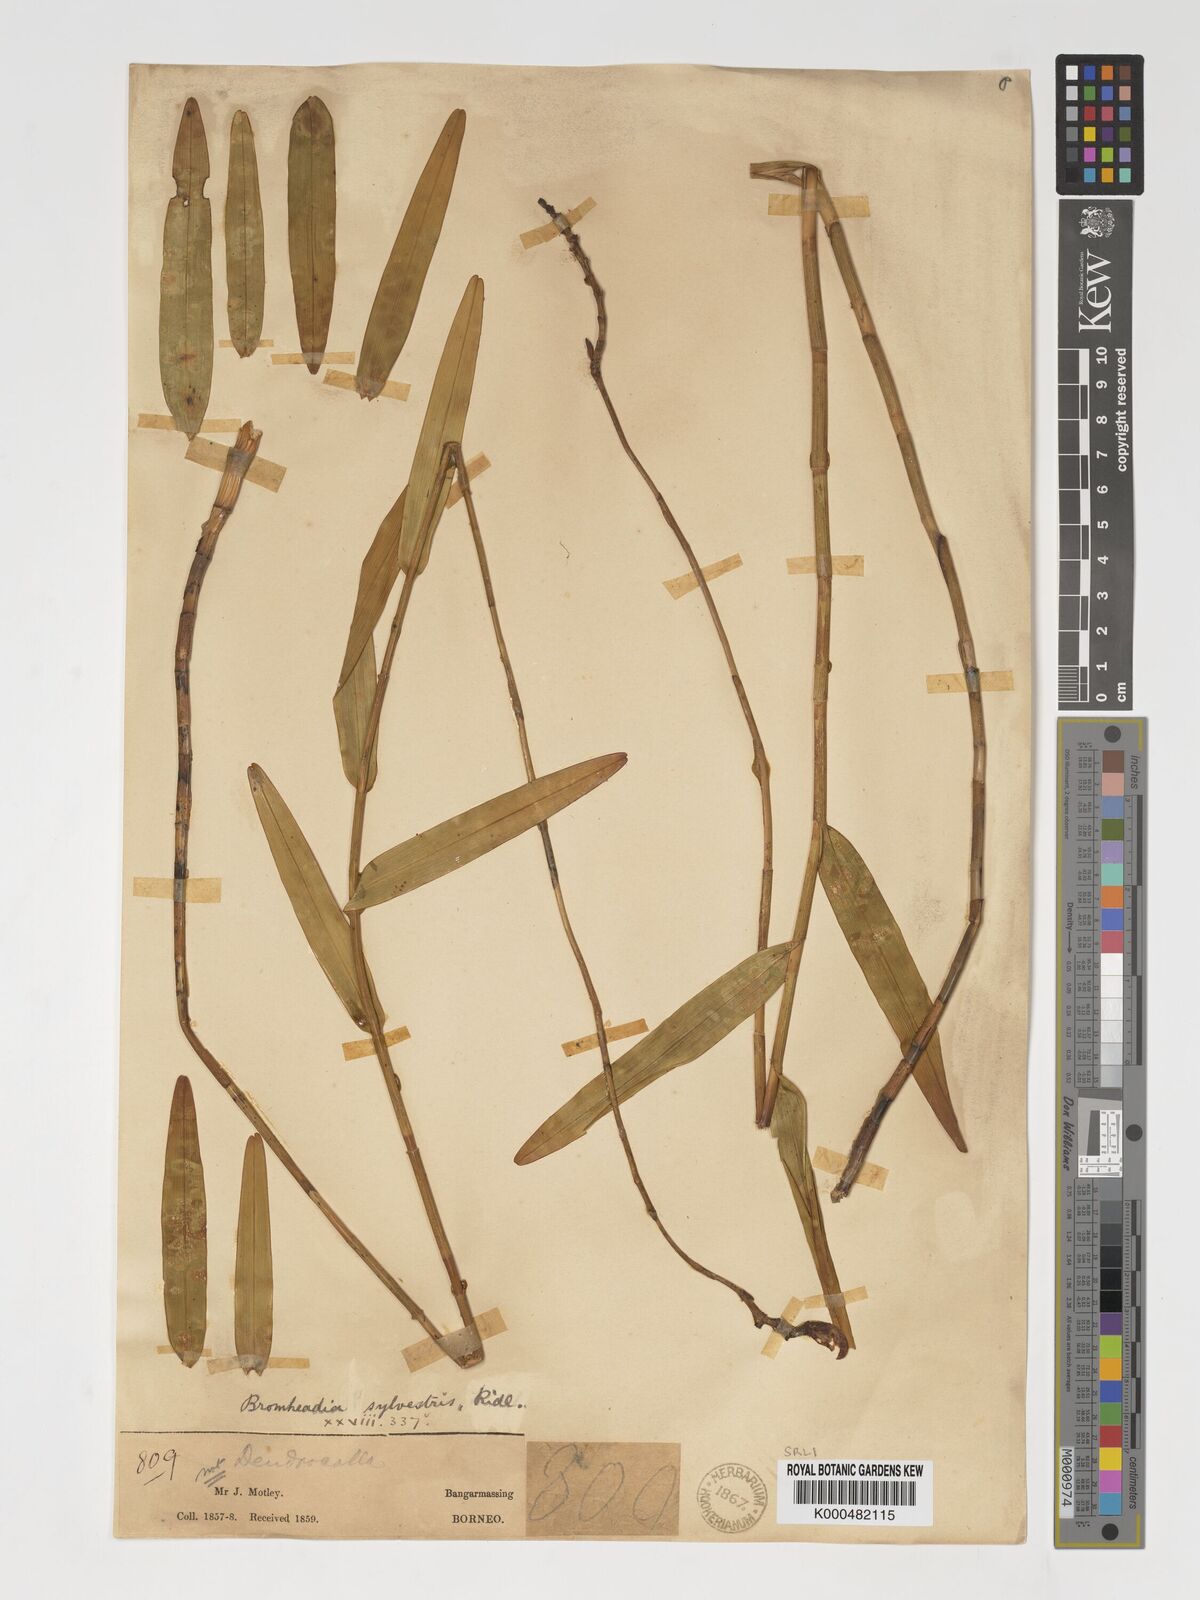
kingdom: Plantae
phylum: Tracheophyta
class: Liliopsida
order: Asparagales
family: Orchidaceae
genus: Bromheadia
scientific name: Bromheadia finlaysoniana
